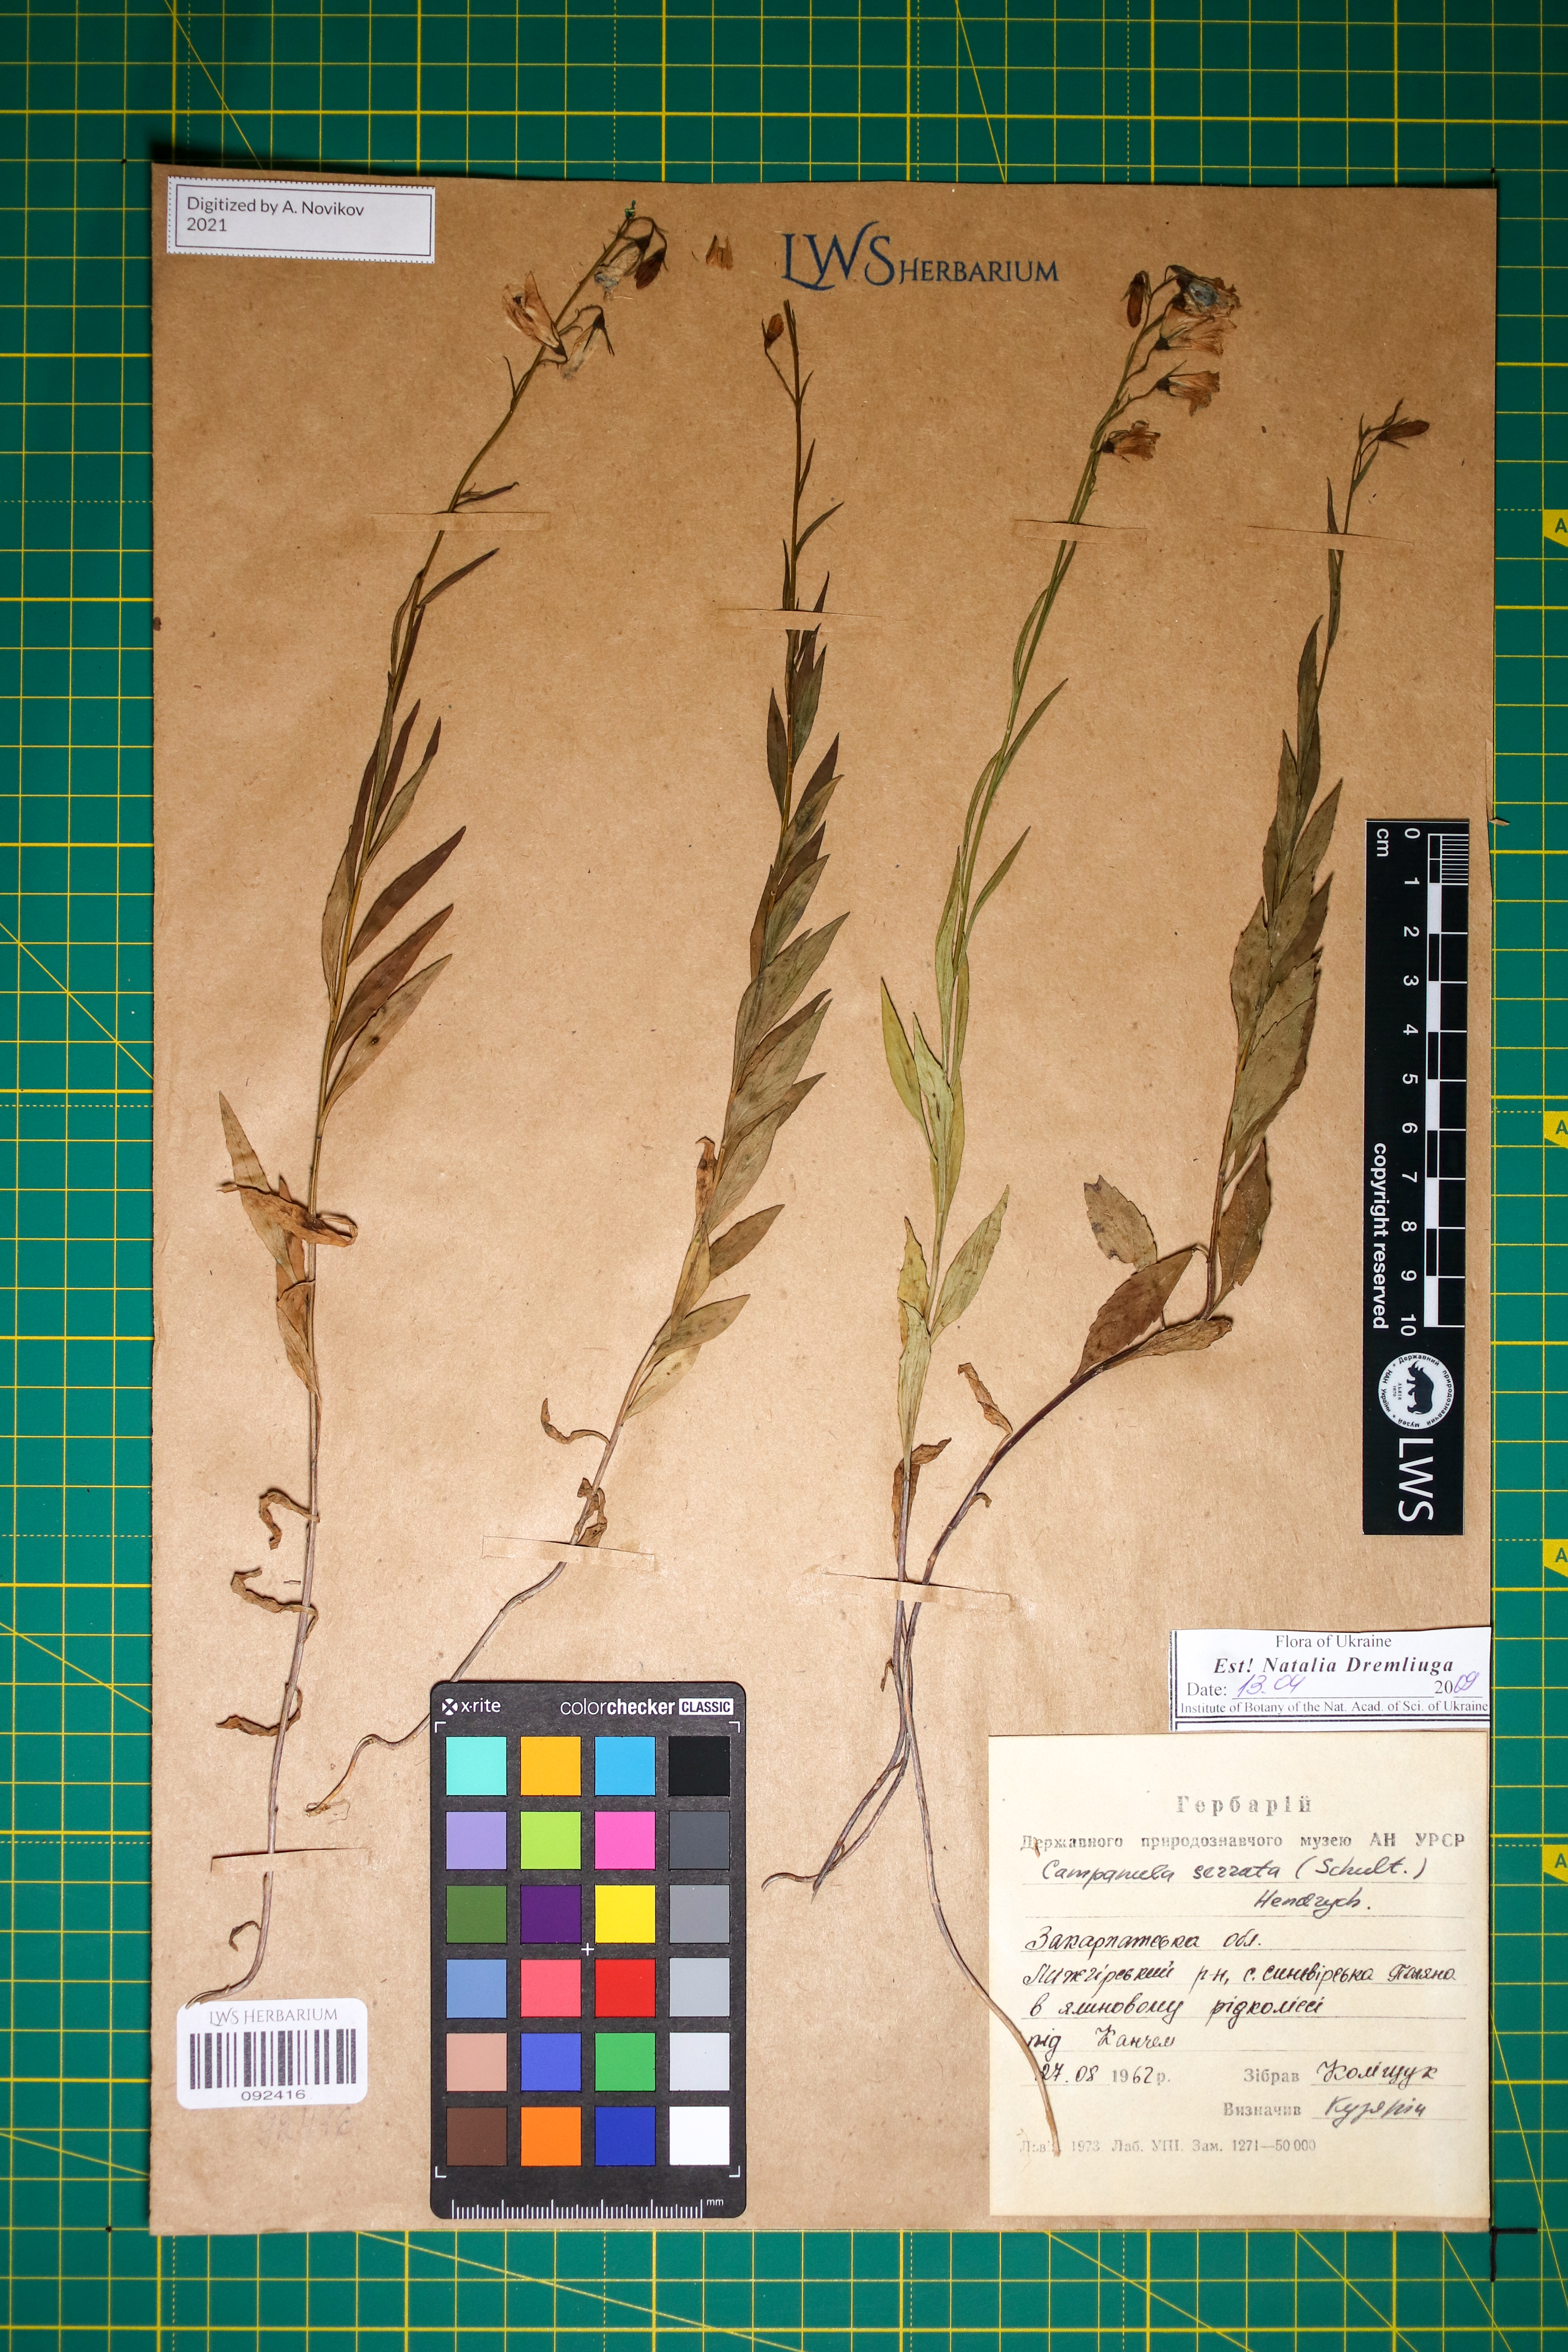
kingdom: Plantae
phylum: Tracheophyta
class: Magnoliopsida
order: Asterales
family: Campanulaceae
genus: Campanula
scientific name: Campanula serrata
